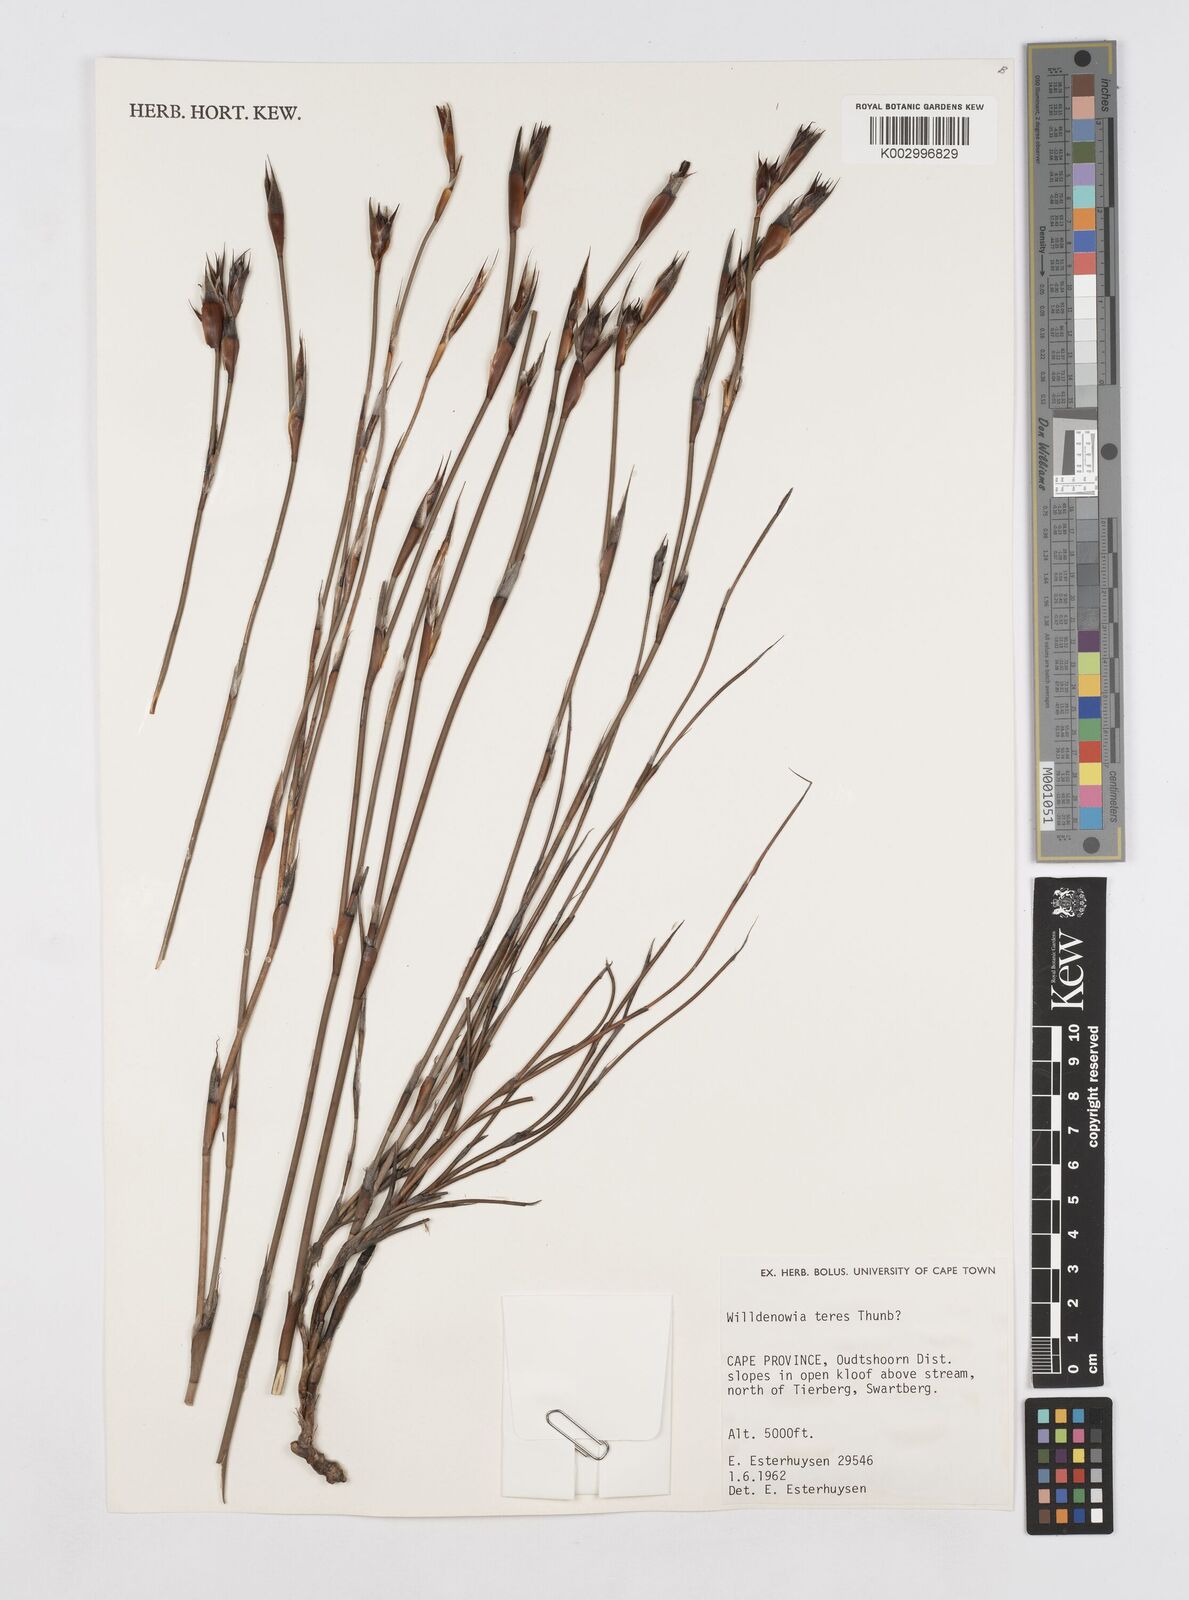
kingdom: Plantae
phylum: Tracheophyta
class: Liliopsida
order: Poales
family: Restionaceae
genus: Willdenowia
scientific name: Willdenowia teres
